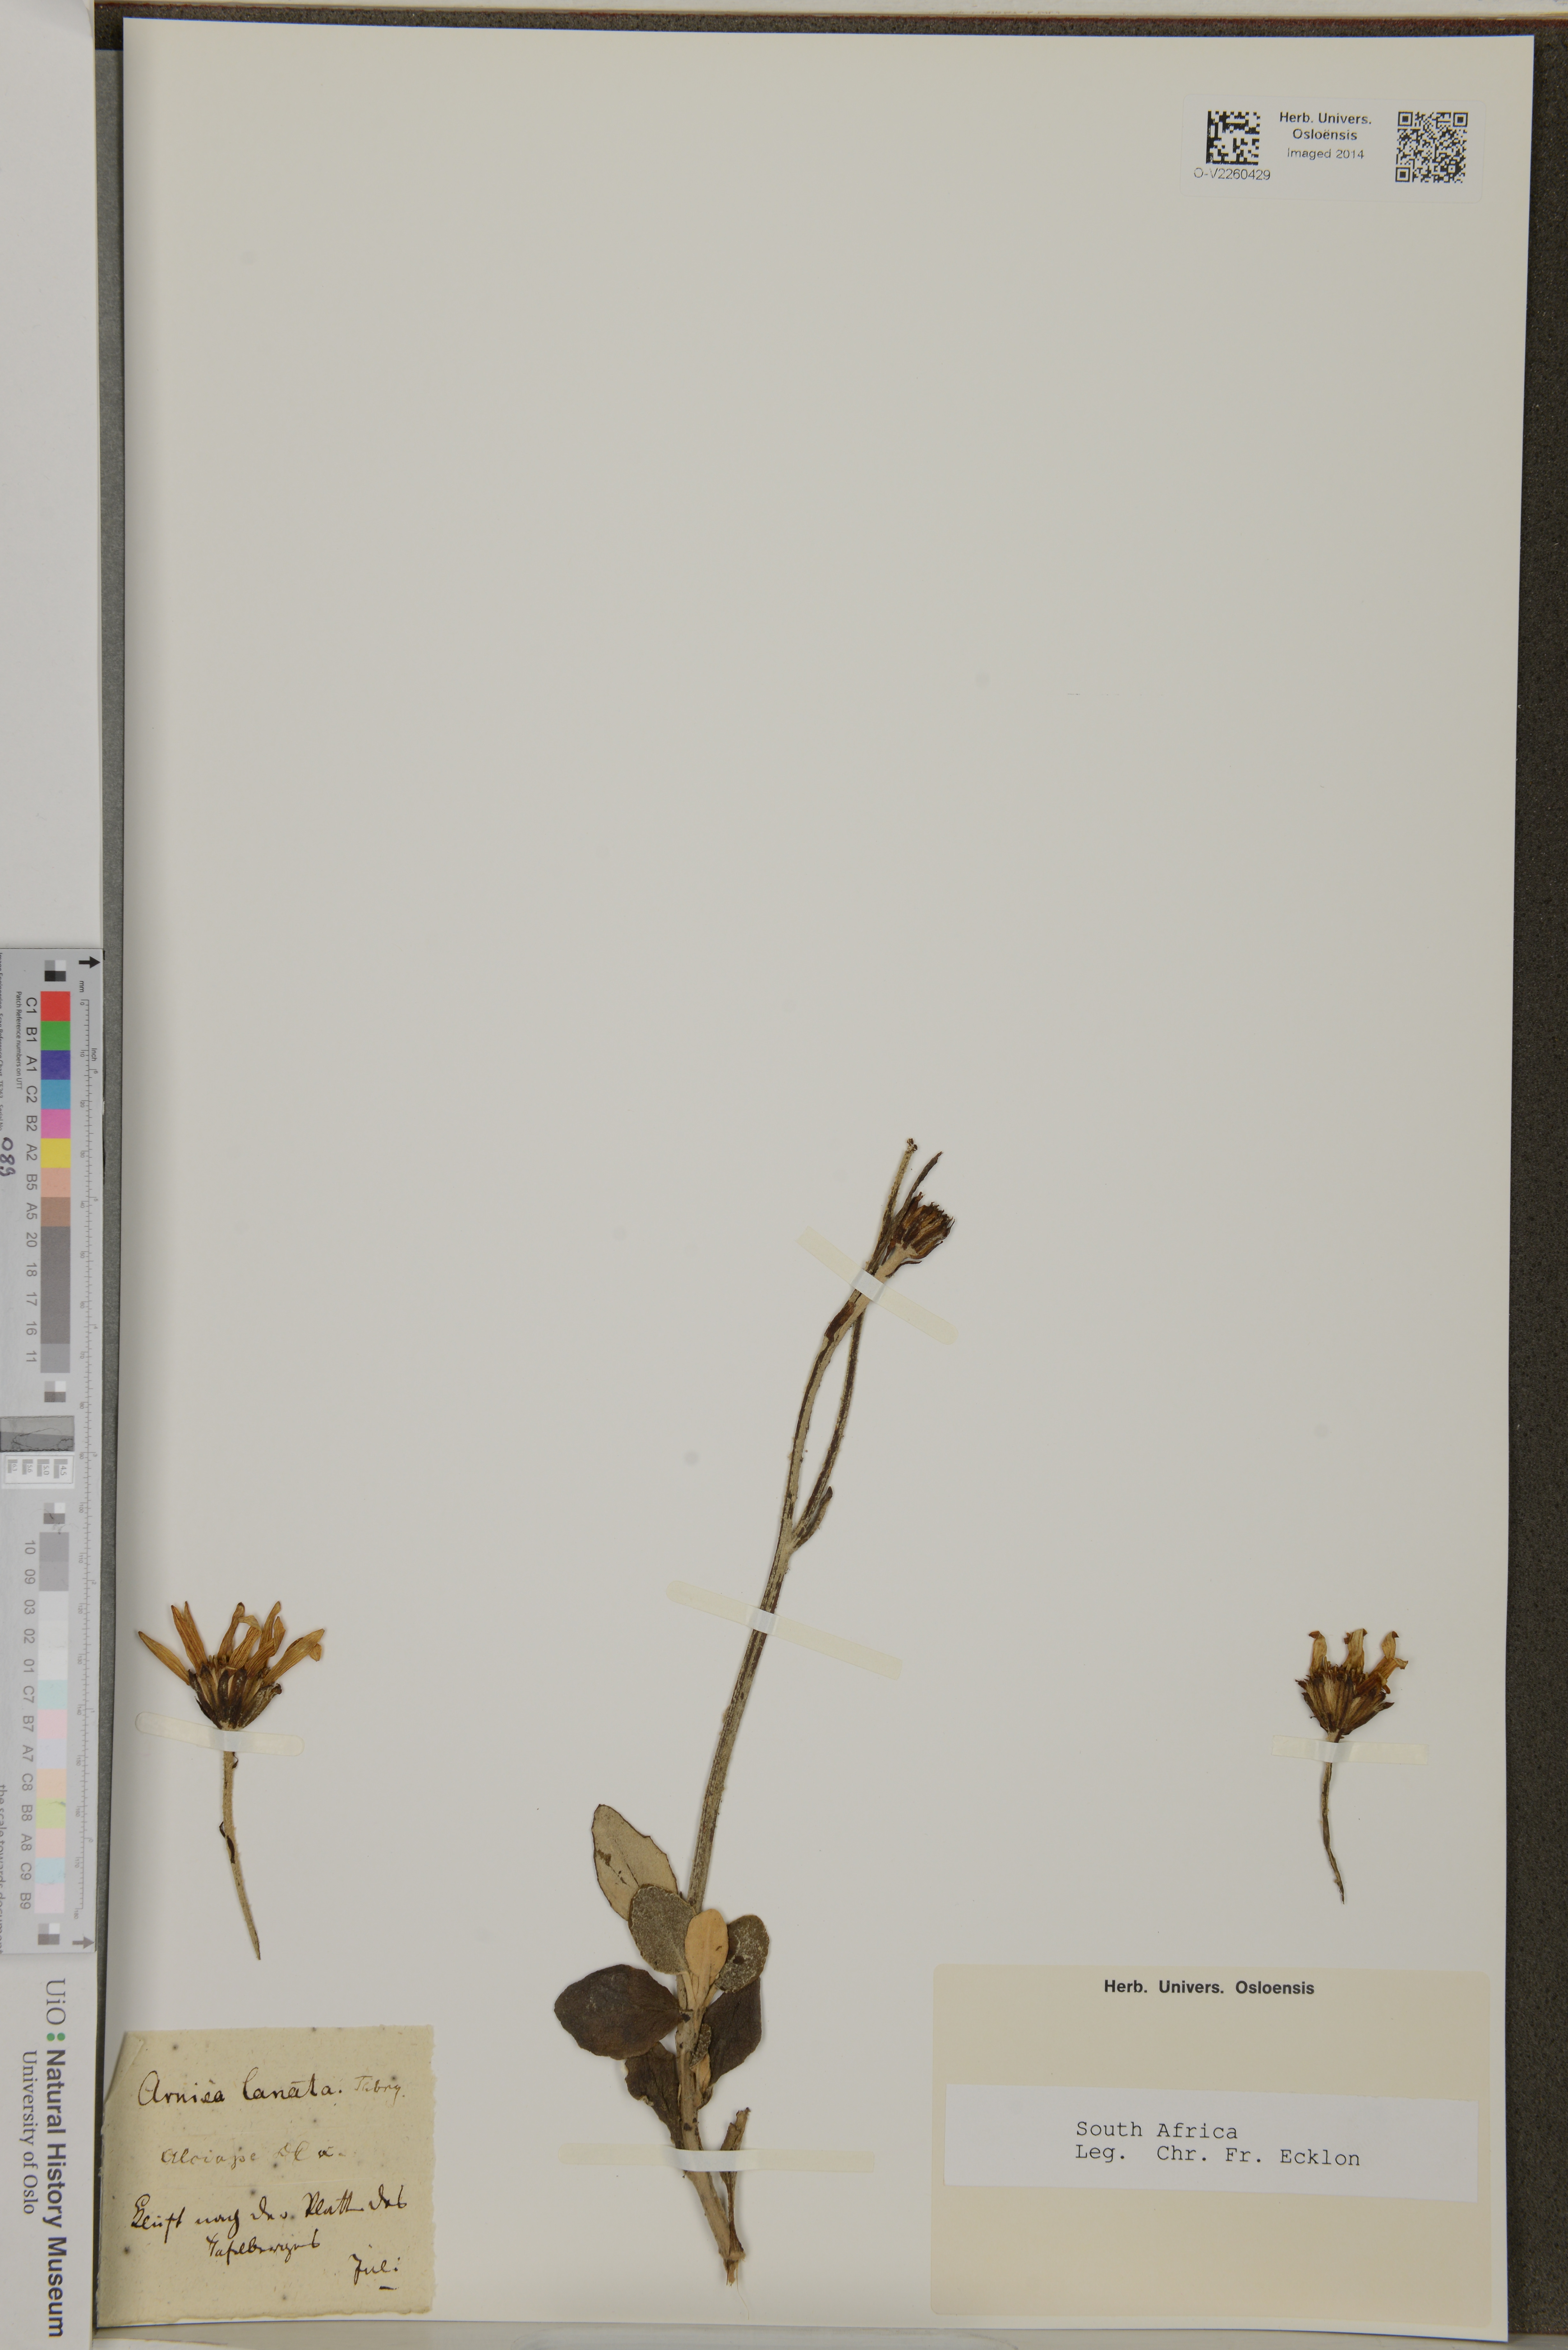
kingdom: Plantae
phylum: Tracheophyta
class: Magnoliopsida
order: Asterales
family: Asteraceae
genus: Capelio
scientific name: Capelio tomentosa
